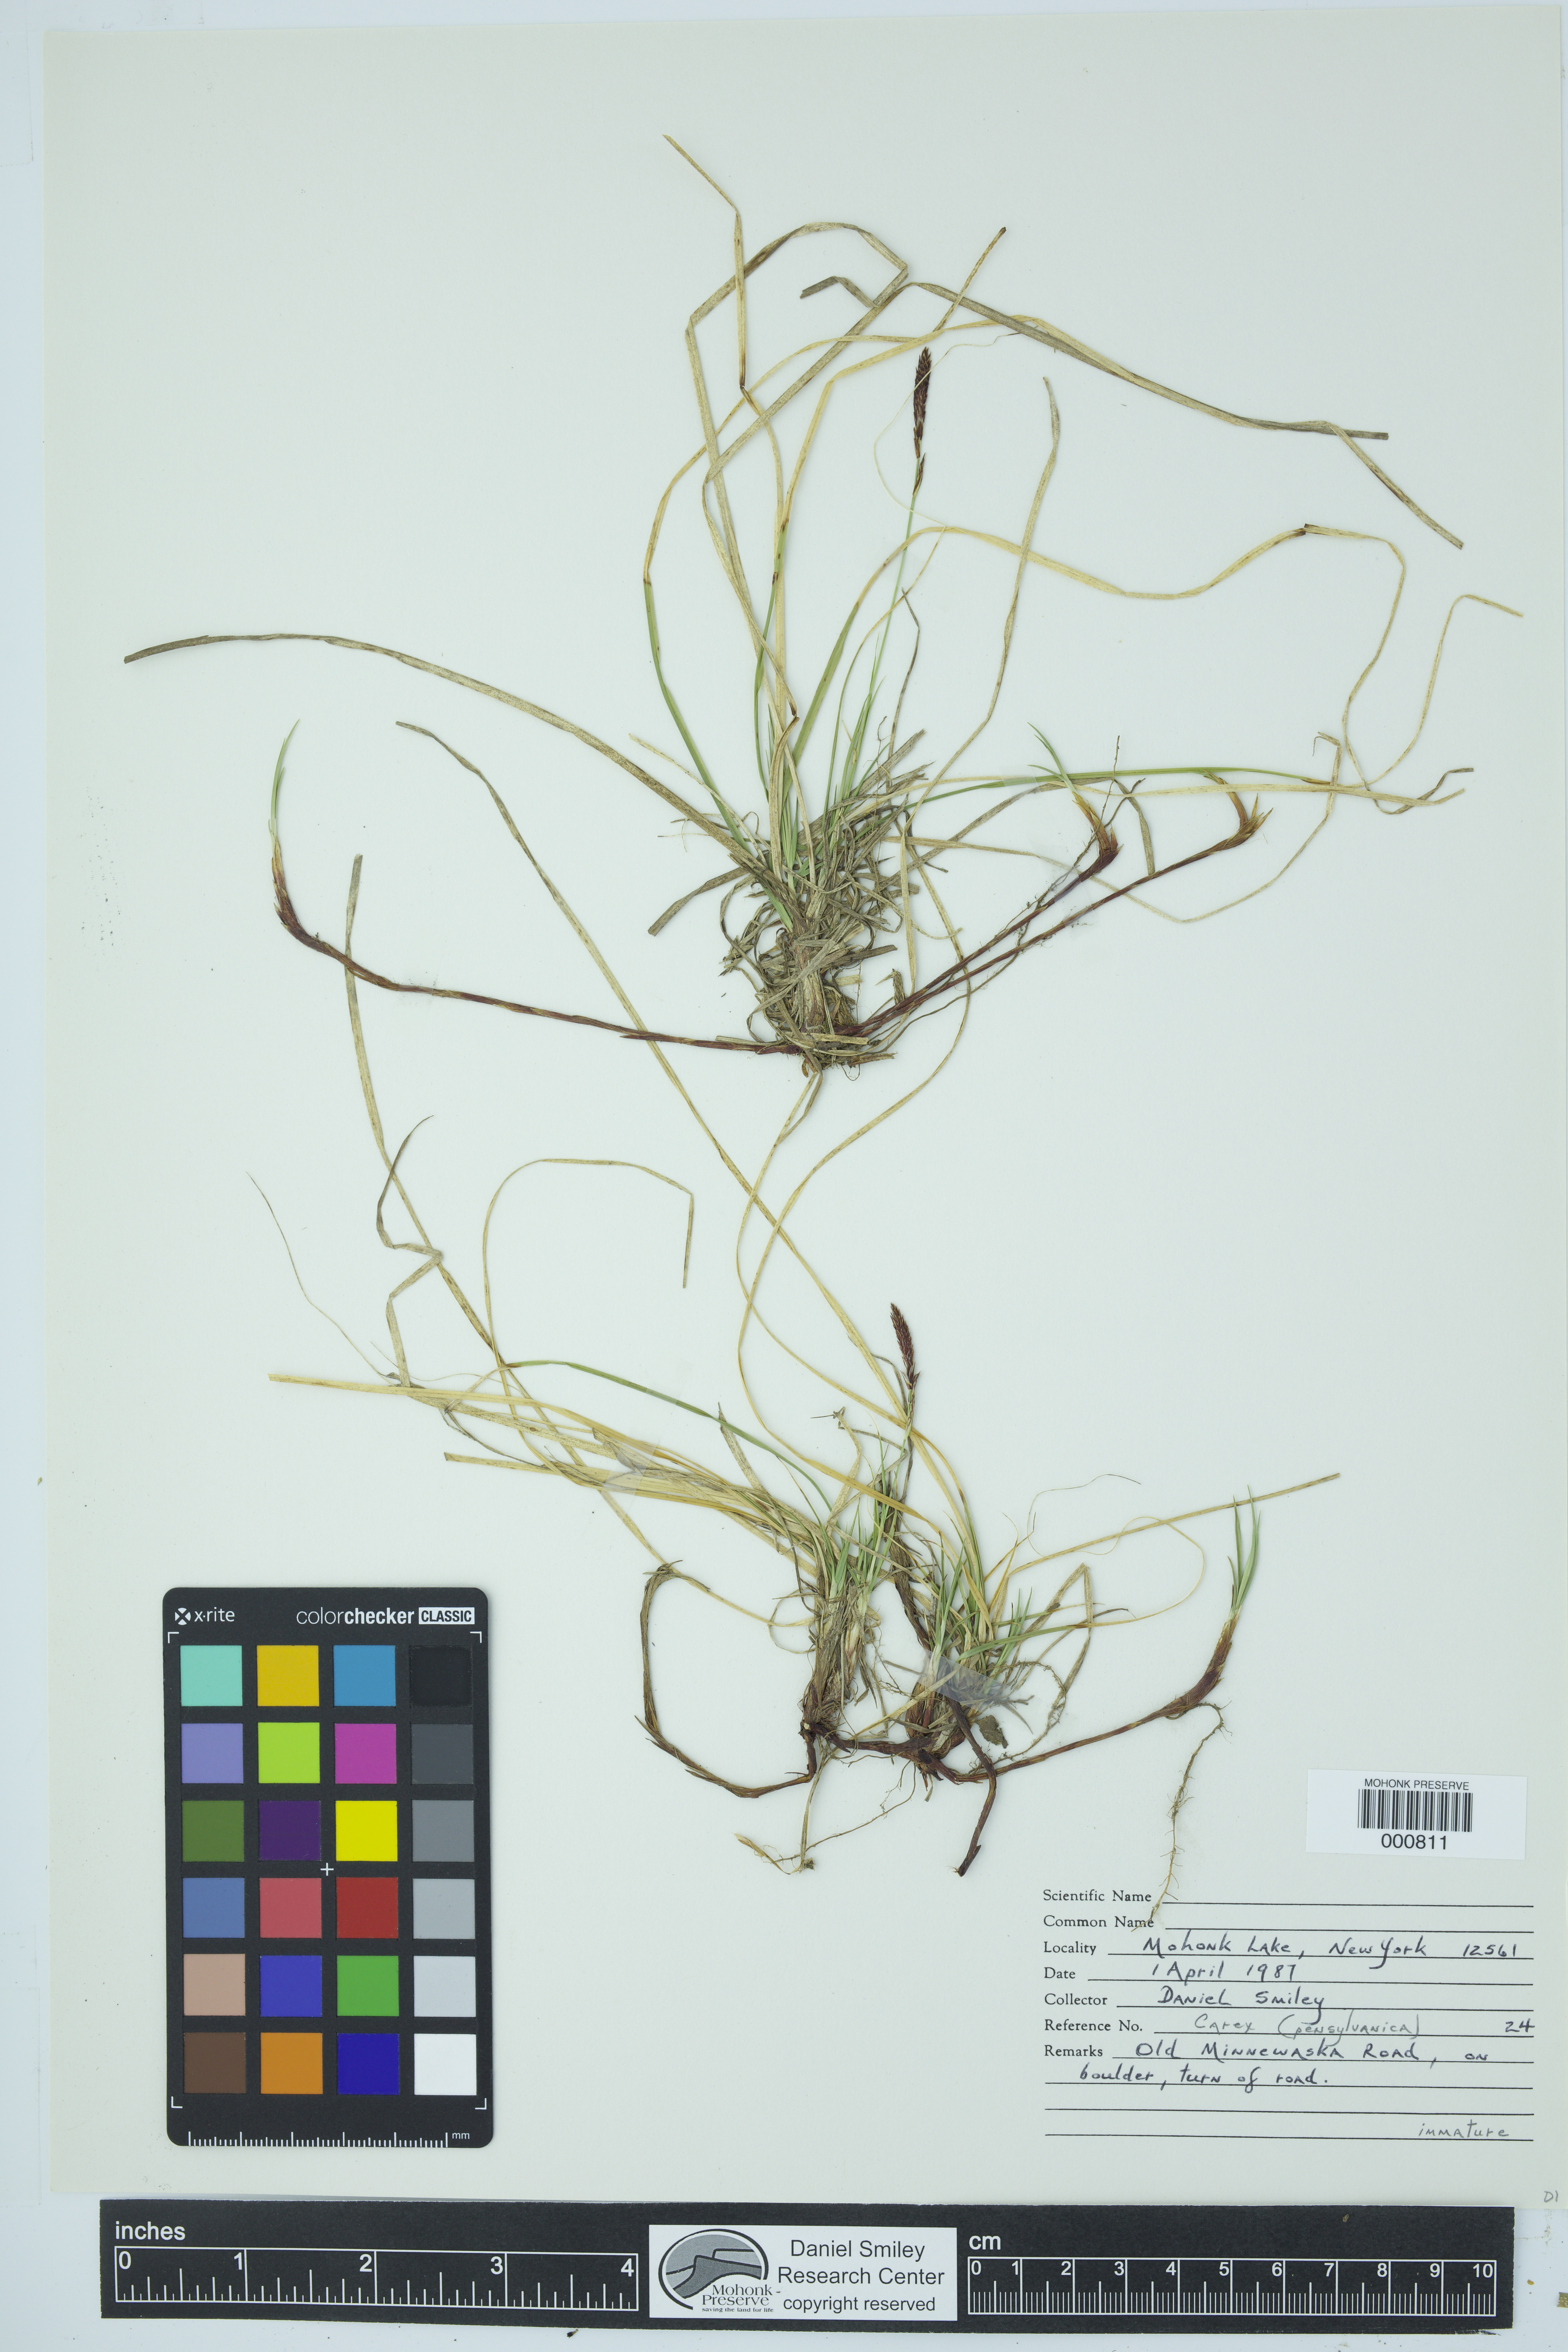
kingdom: Plantae
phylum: Tracheophyta
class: Liliopsida
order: Poales
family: Cyperaceae
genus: Carex
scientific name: Carex pensylvanica
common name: Common oak sedge
